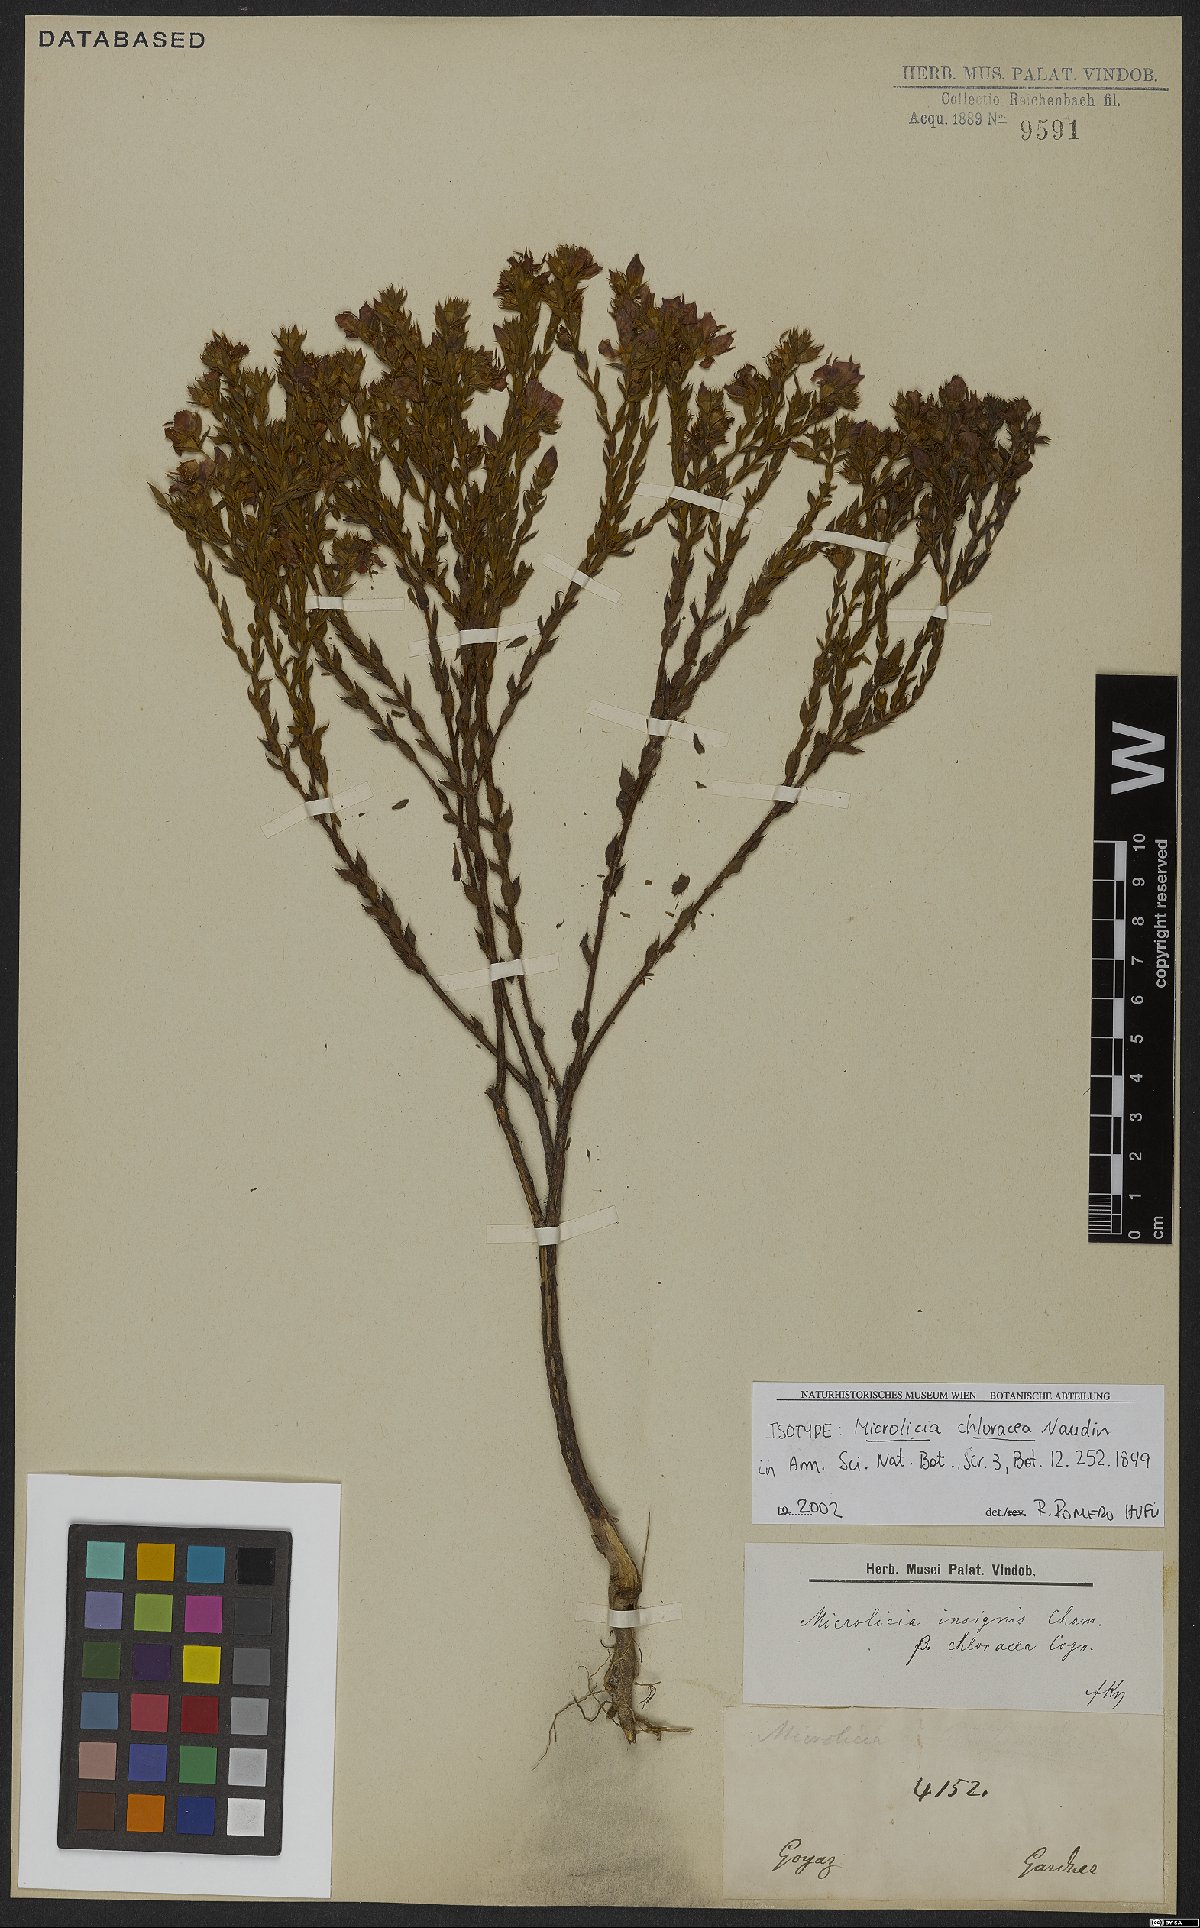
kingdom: Plantae
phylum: Tracheophyta
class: Magnoliopsida
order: Myrtales
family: Melastomataceae
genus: Microlicia
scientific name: Microlicia insignis
